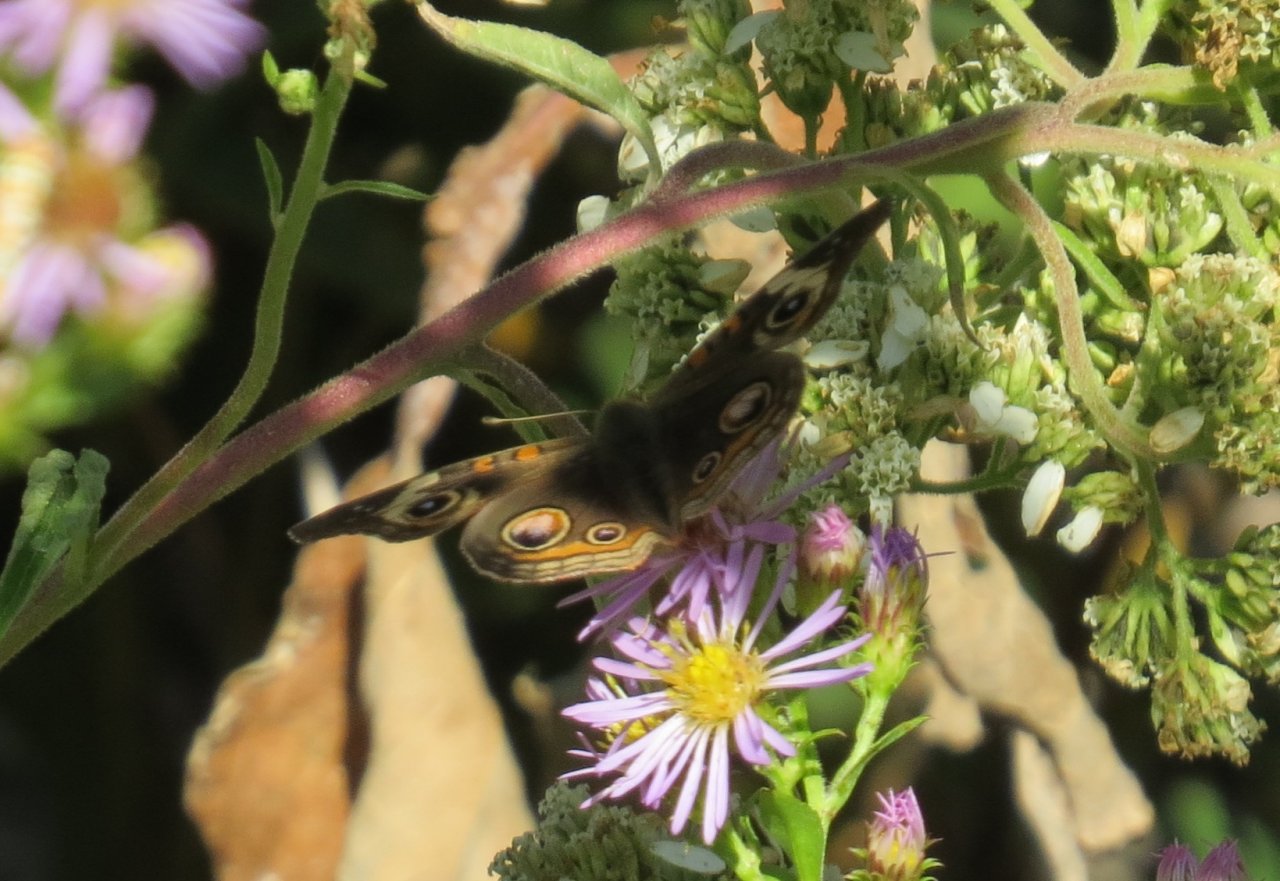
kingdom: Animalia
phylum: Arthropoda
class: Insecta
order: Lepidoptera
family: Nymphalidae
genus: Junonia
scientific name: Junonia coenia
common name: Common Buckeye
